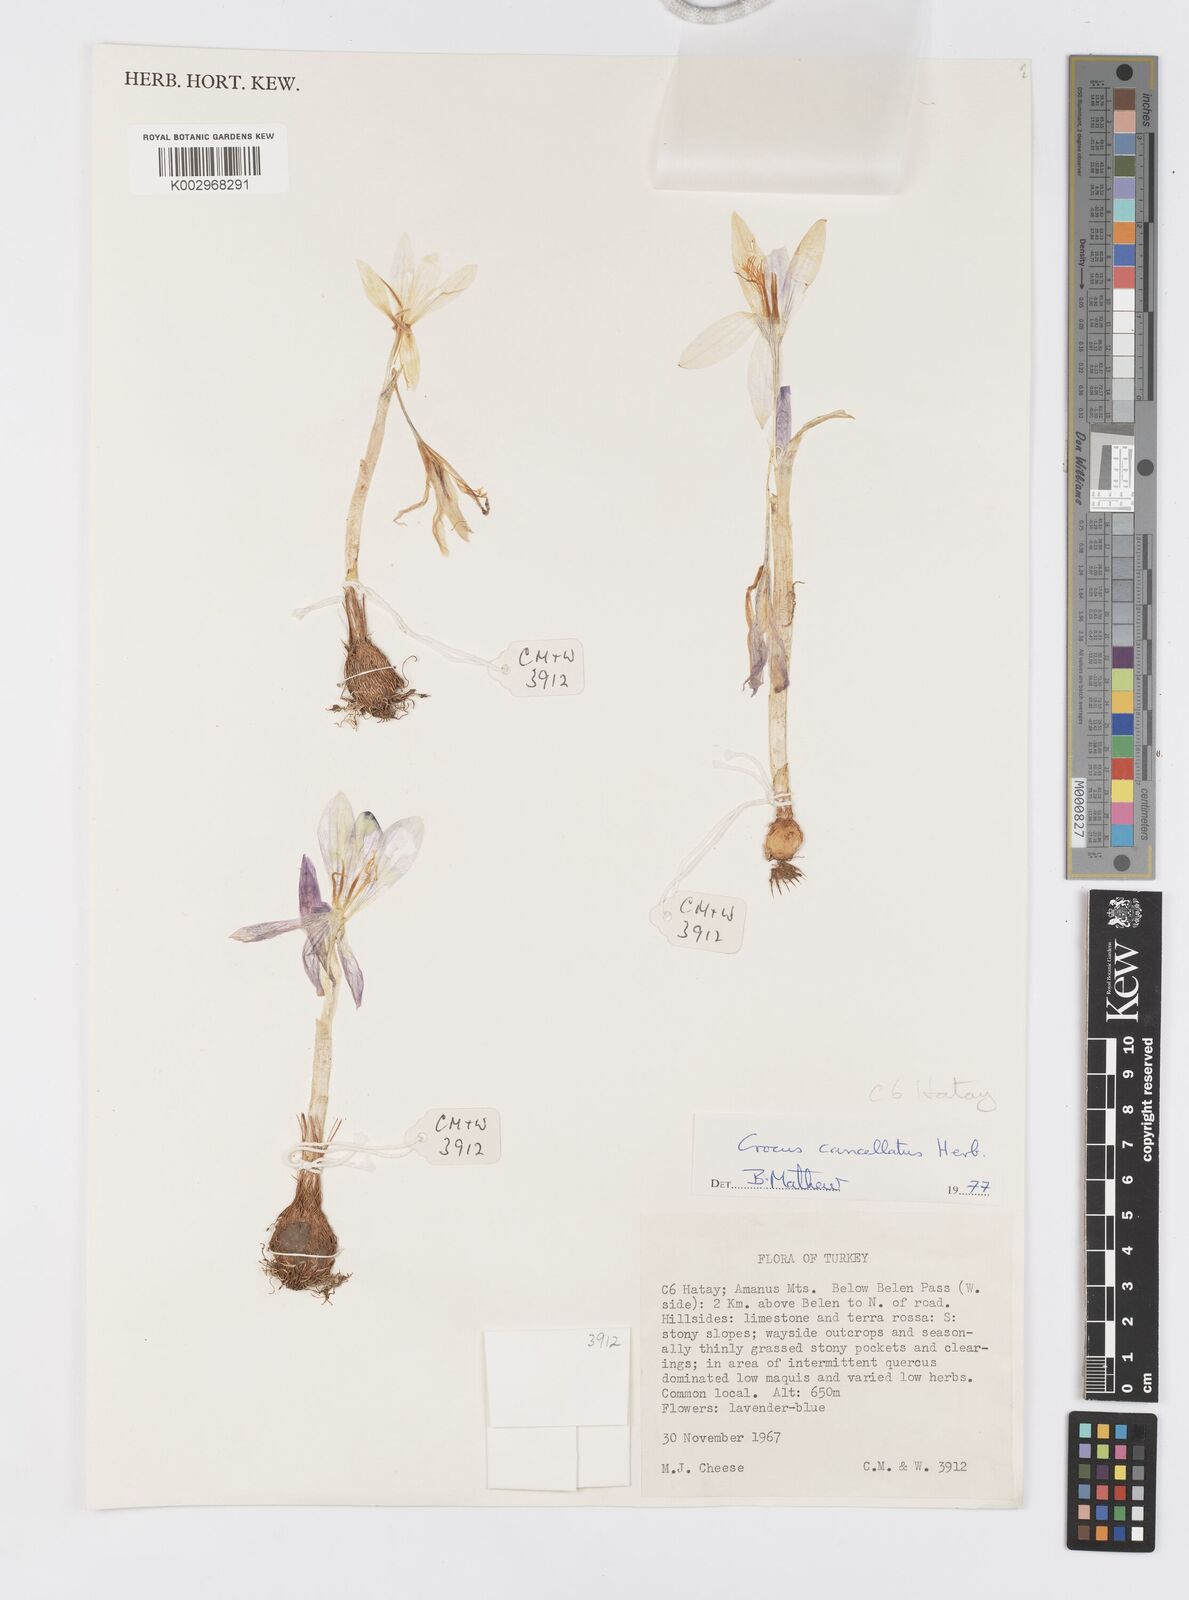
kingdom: Plantae
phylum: Tracheophyta
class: Liliopsida
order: Asparagales
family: Iridaceae
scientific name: Iridaceae
